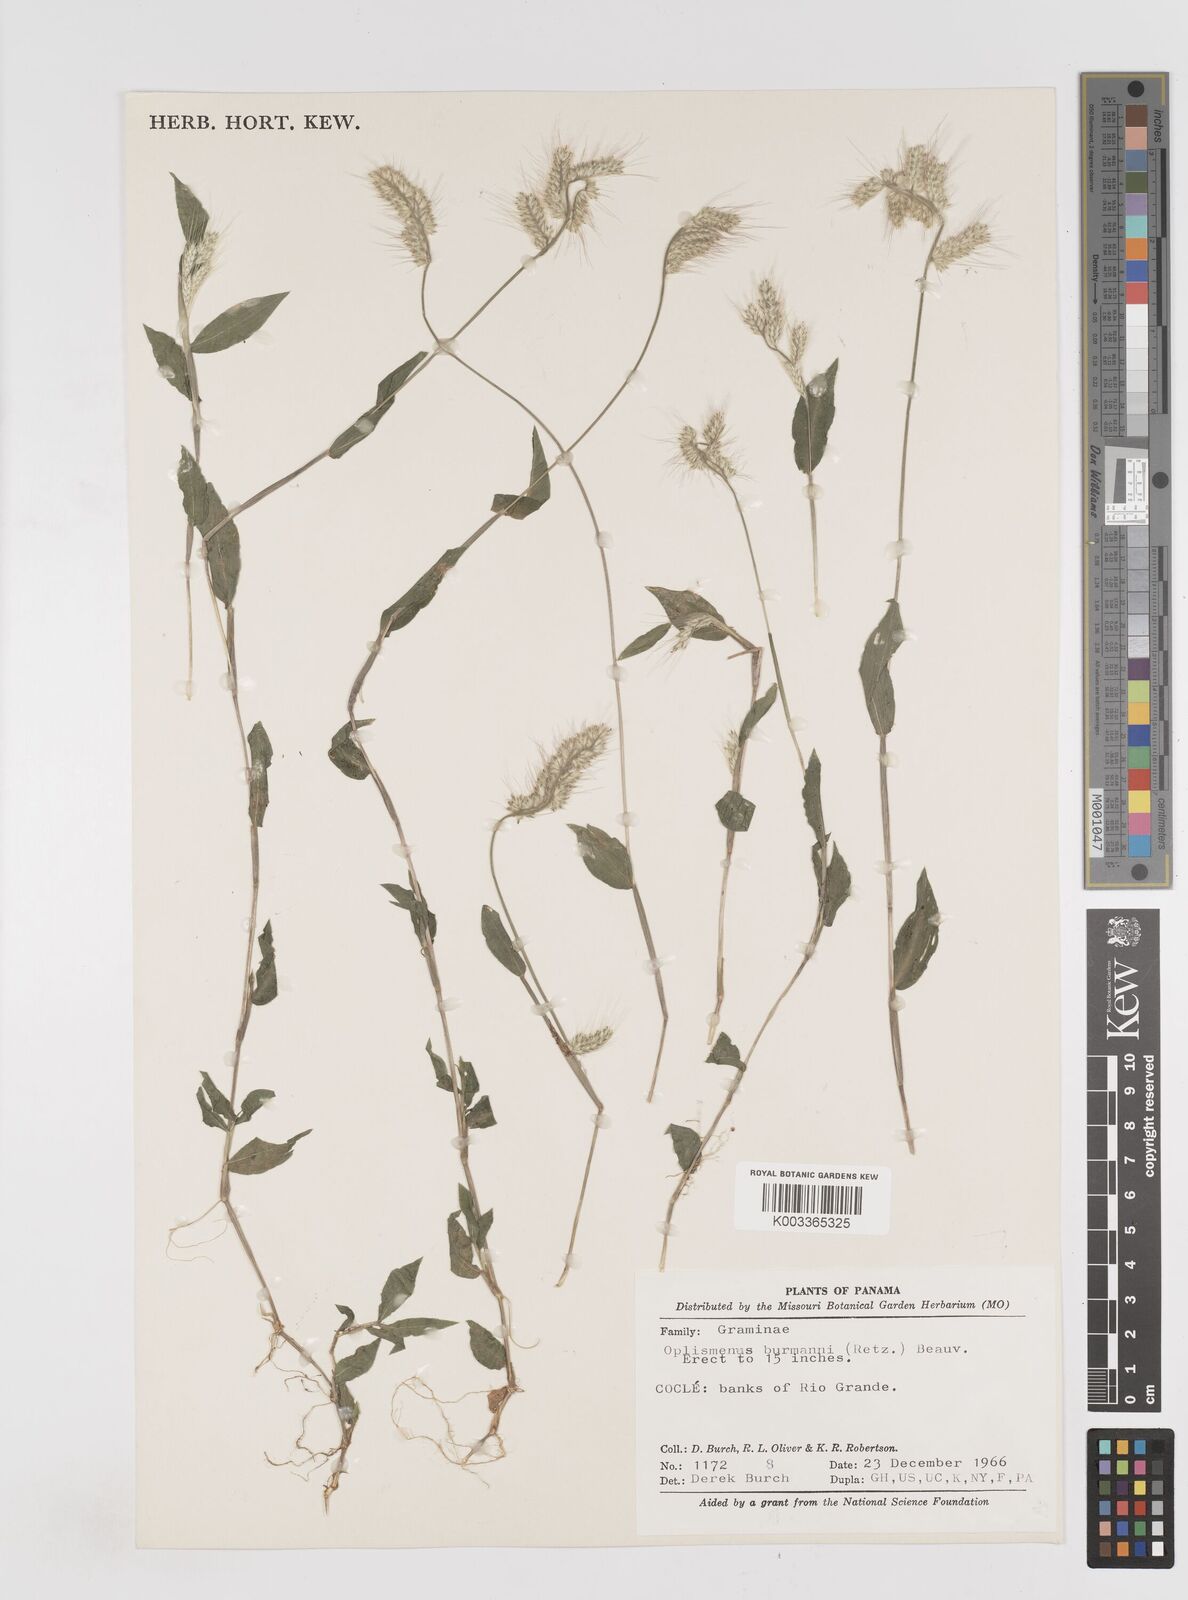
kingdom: Plantae
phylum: Tracheophyta
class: Liliopsida
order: Poales
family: Poaceae
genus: Oplismenus
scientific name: Oplismenus burmanni
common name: Burmann's basketgrass
